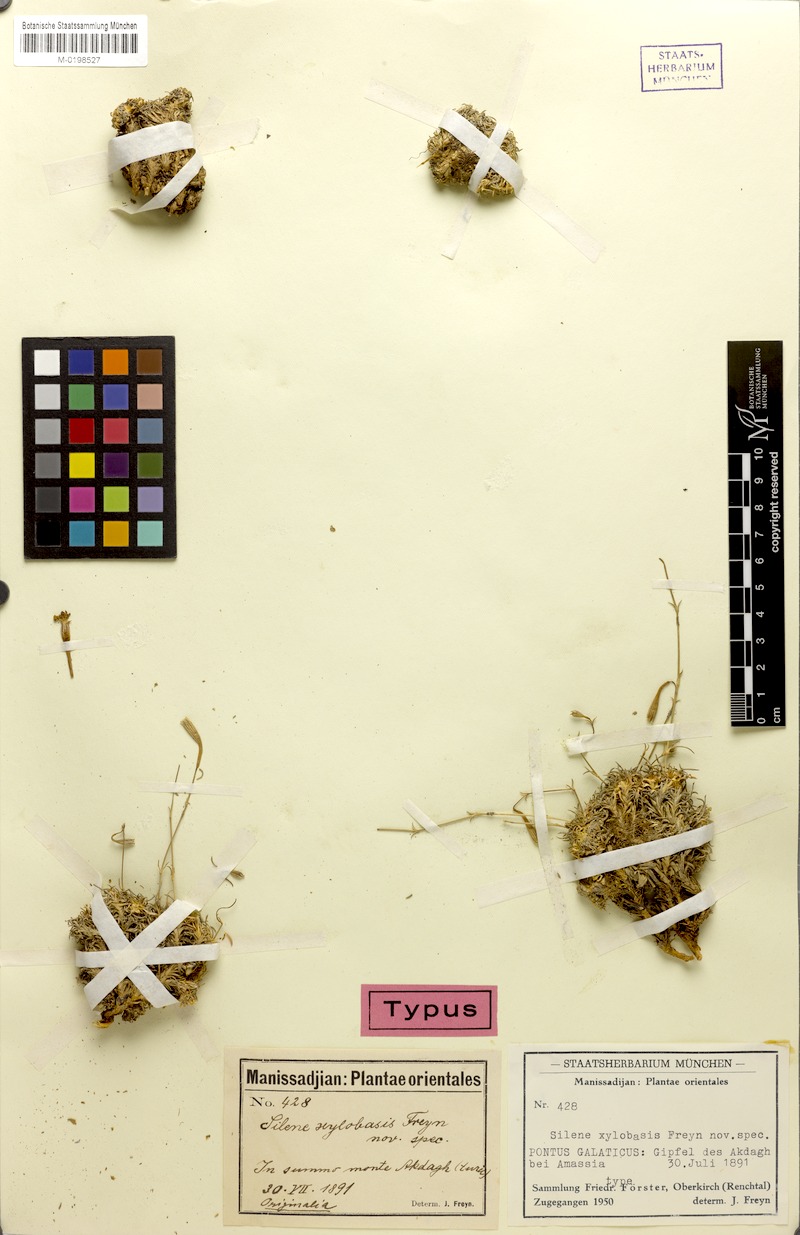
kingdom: Plantae
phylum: Tracheophyta
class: Magnoliopsida
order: Caryophyllales
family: Caryophyllaceae
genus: Silene
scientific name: Silene xylobasis
